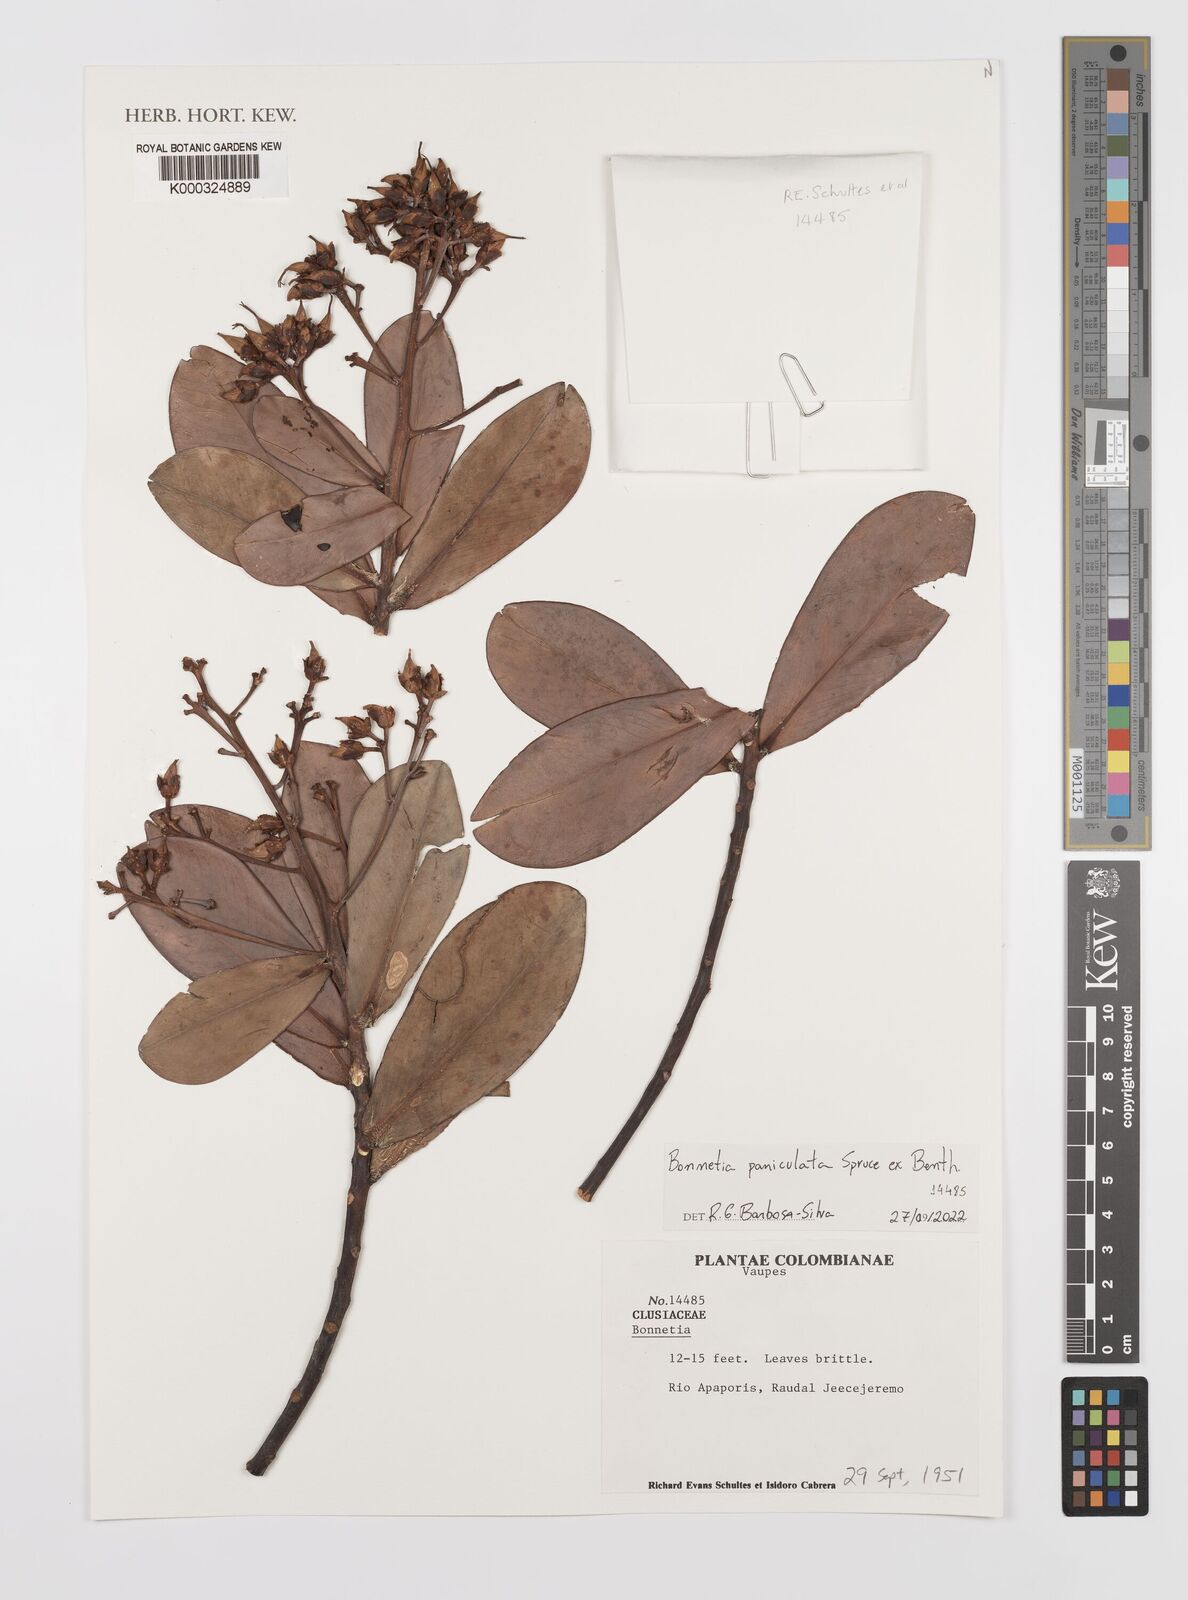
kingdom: Plantae
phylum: Tracheophyta
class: Magnoliopsida
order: Malpighiales
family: Bonnetiaceae
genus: Bonnetia
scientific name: Bonnetia
